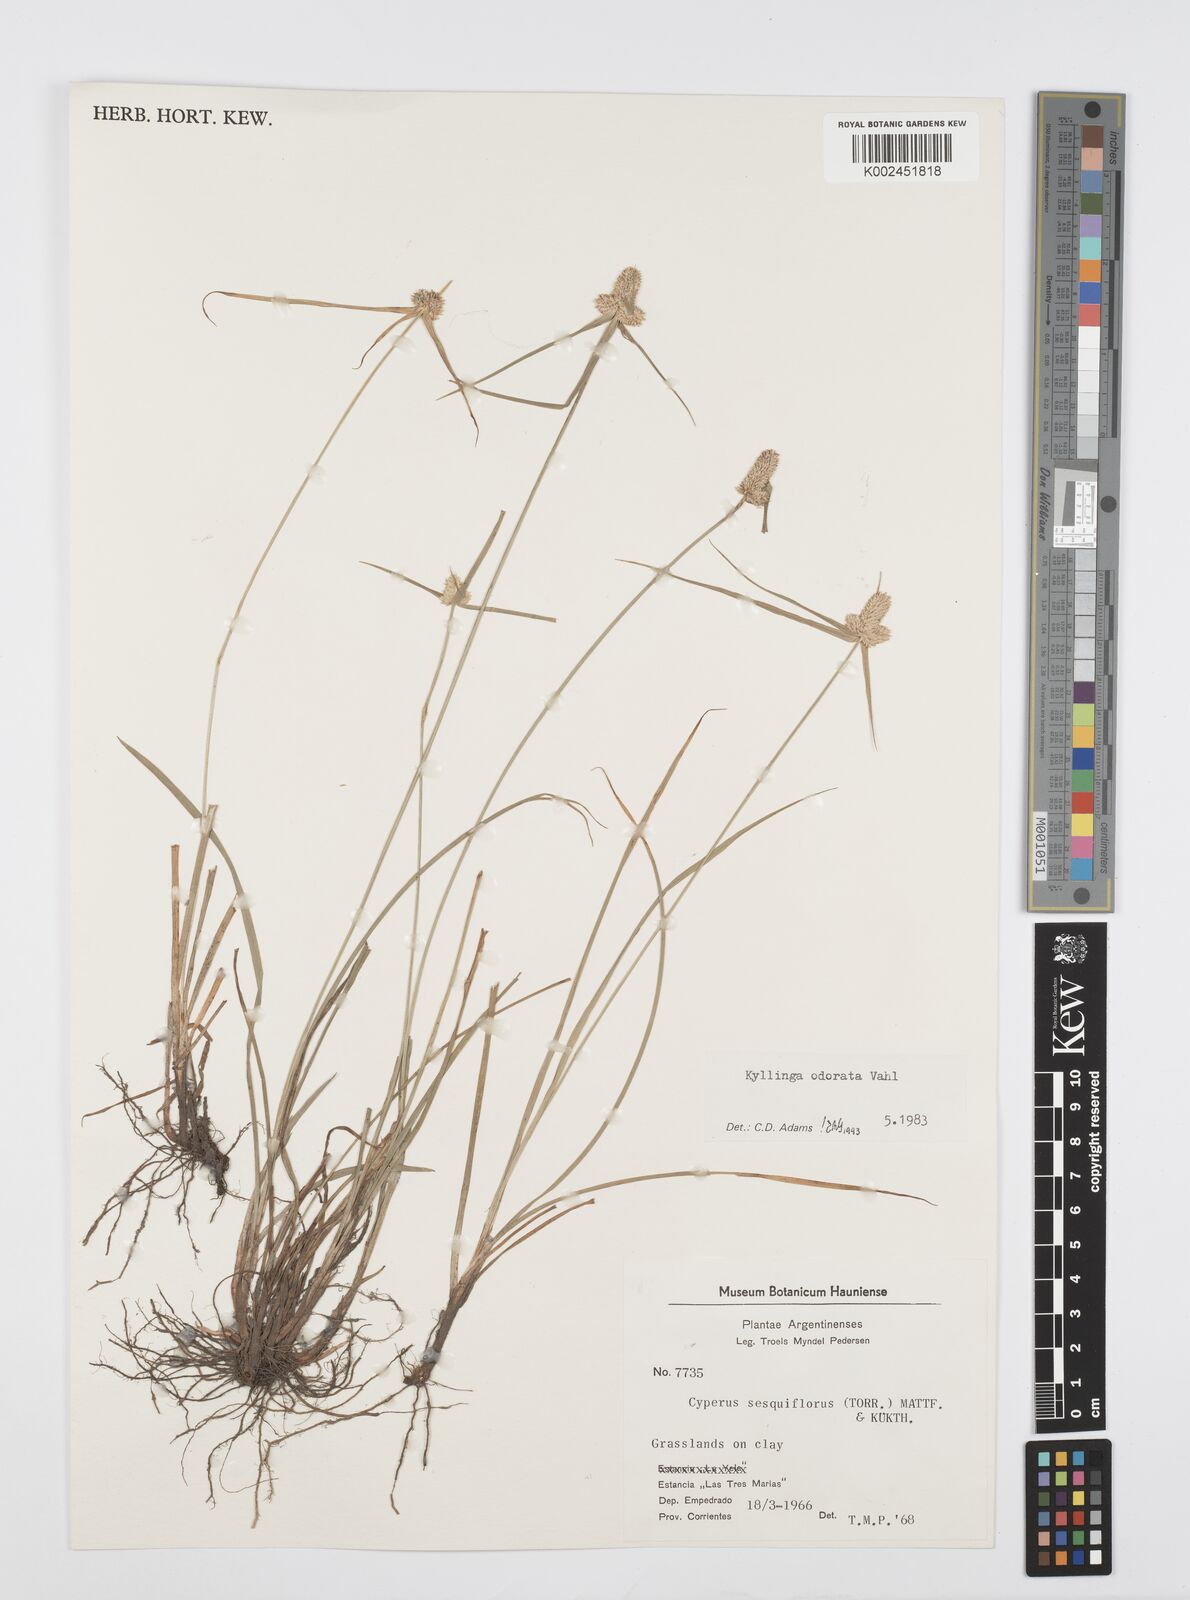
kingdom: Plantae
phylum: Tracheophyta
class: Liliopsida
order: Poales
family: Cyperaceae
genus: Cyperus
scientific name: Cyperus
